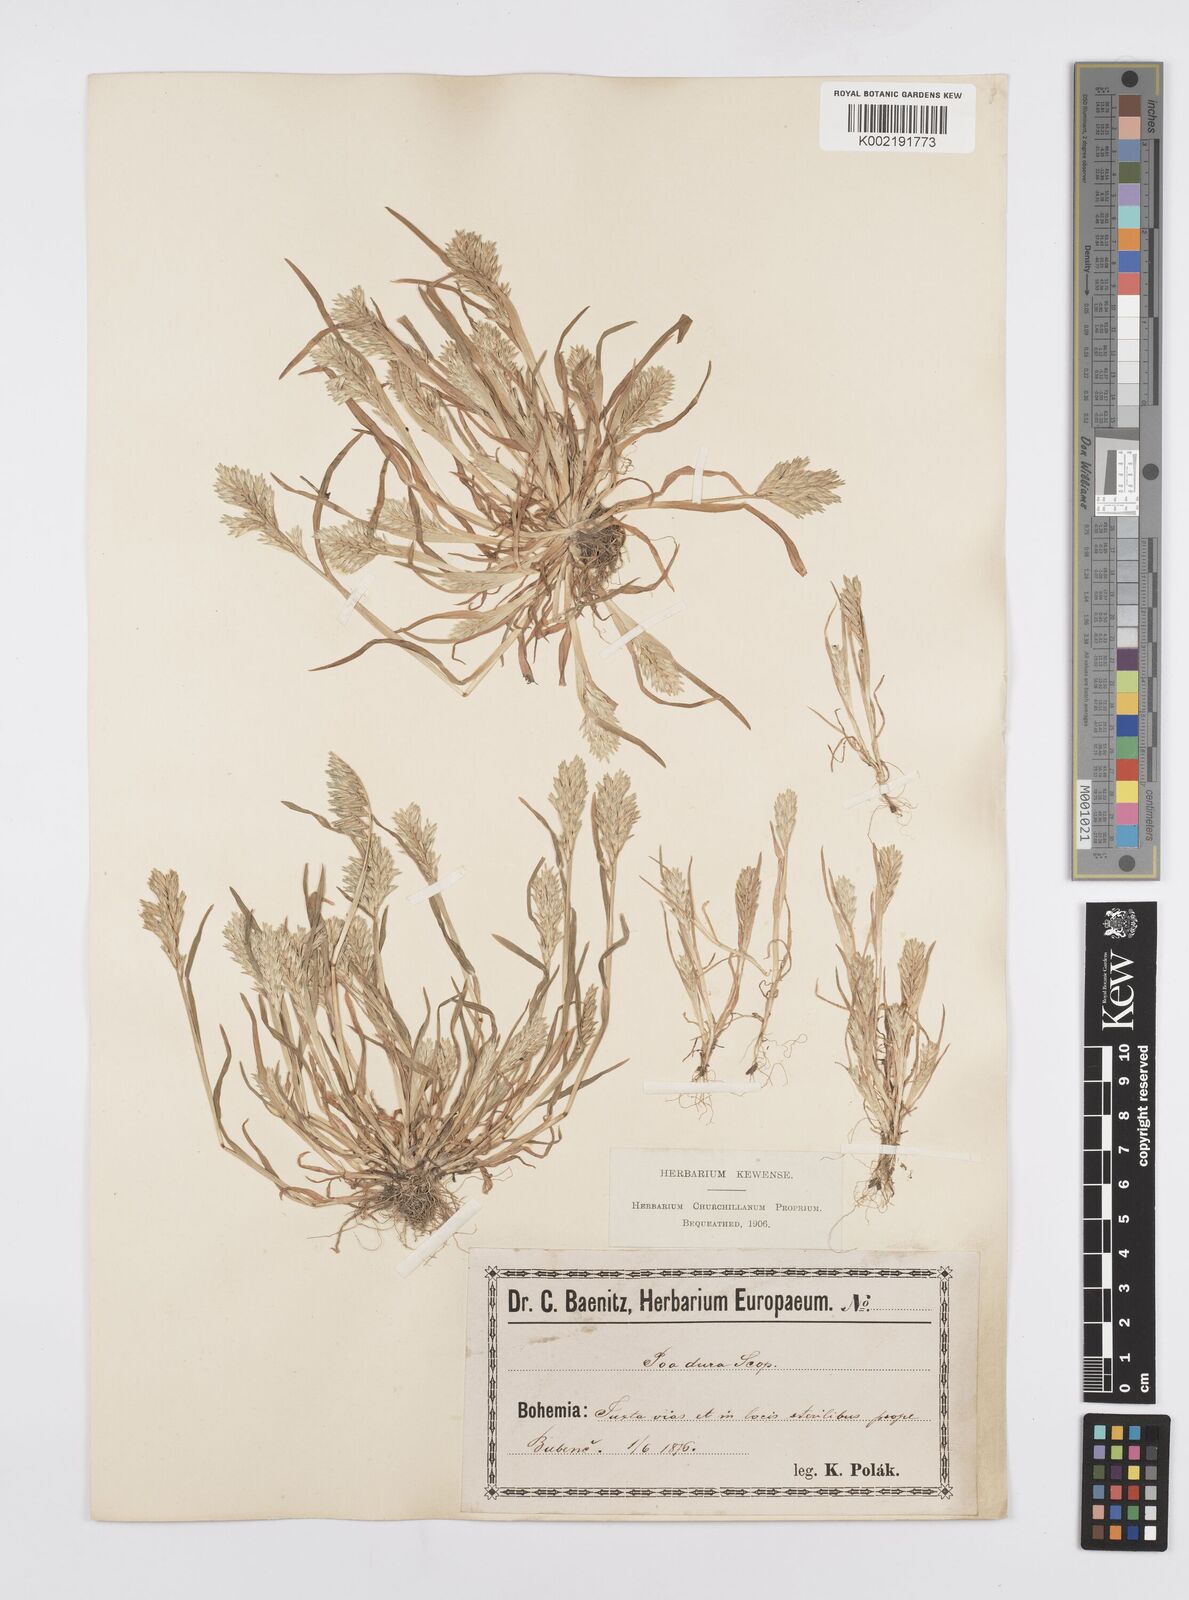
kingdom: Plantae
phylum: Tracheophyta
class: Liliopsida
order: Poales
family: Poaceae
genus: Sclerochloa
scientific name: Sclerochloa dura
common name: Common hardgrass
